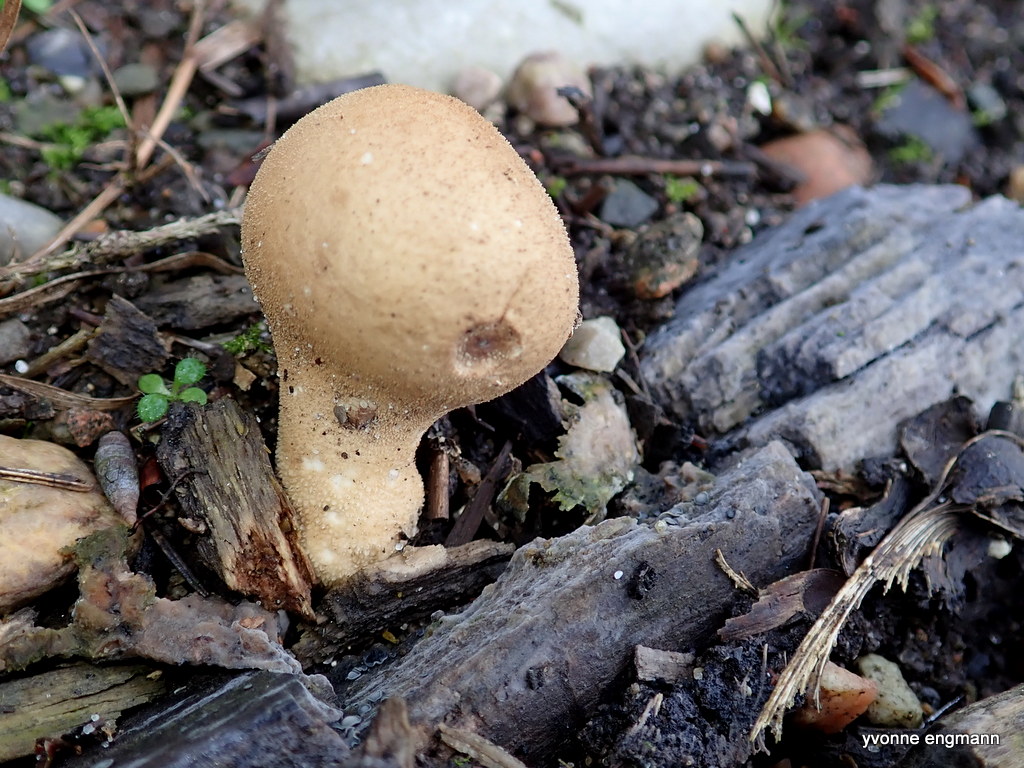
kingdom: Fungi
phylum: Basidiomycota
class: Agaricomycetes
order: Agaricales
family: Lycoperdaceae
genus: Apioperdon
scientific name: Apioperdon pyriforme
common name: pære-støvbold
